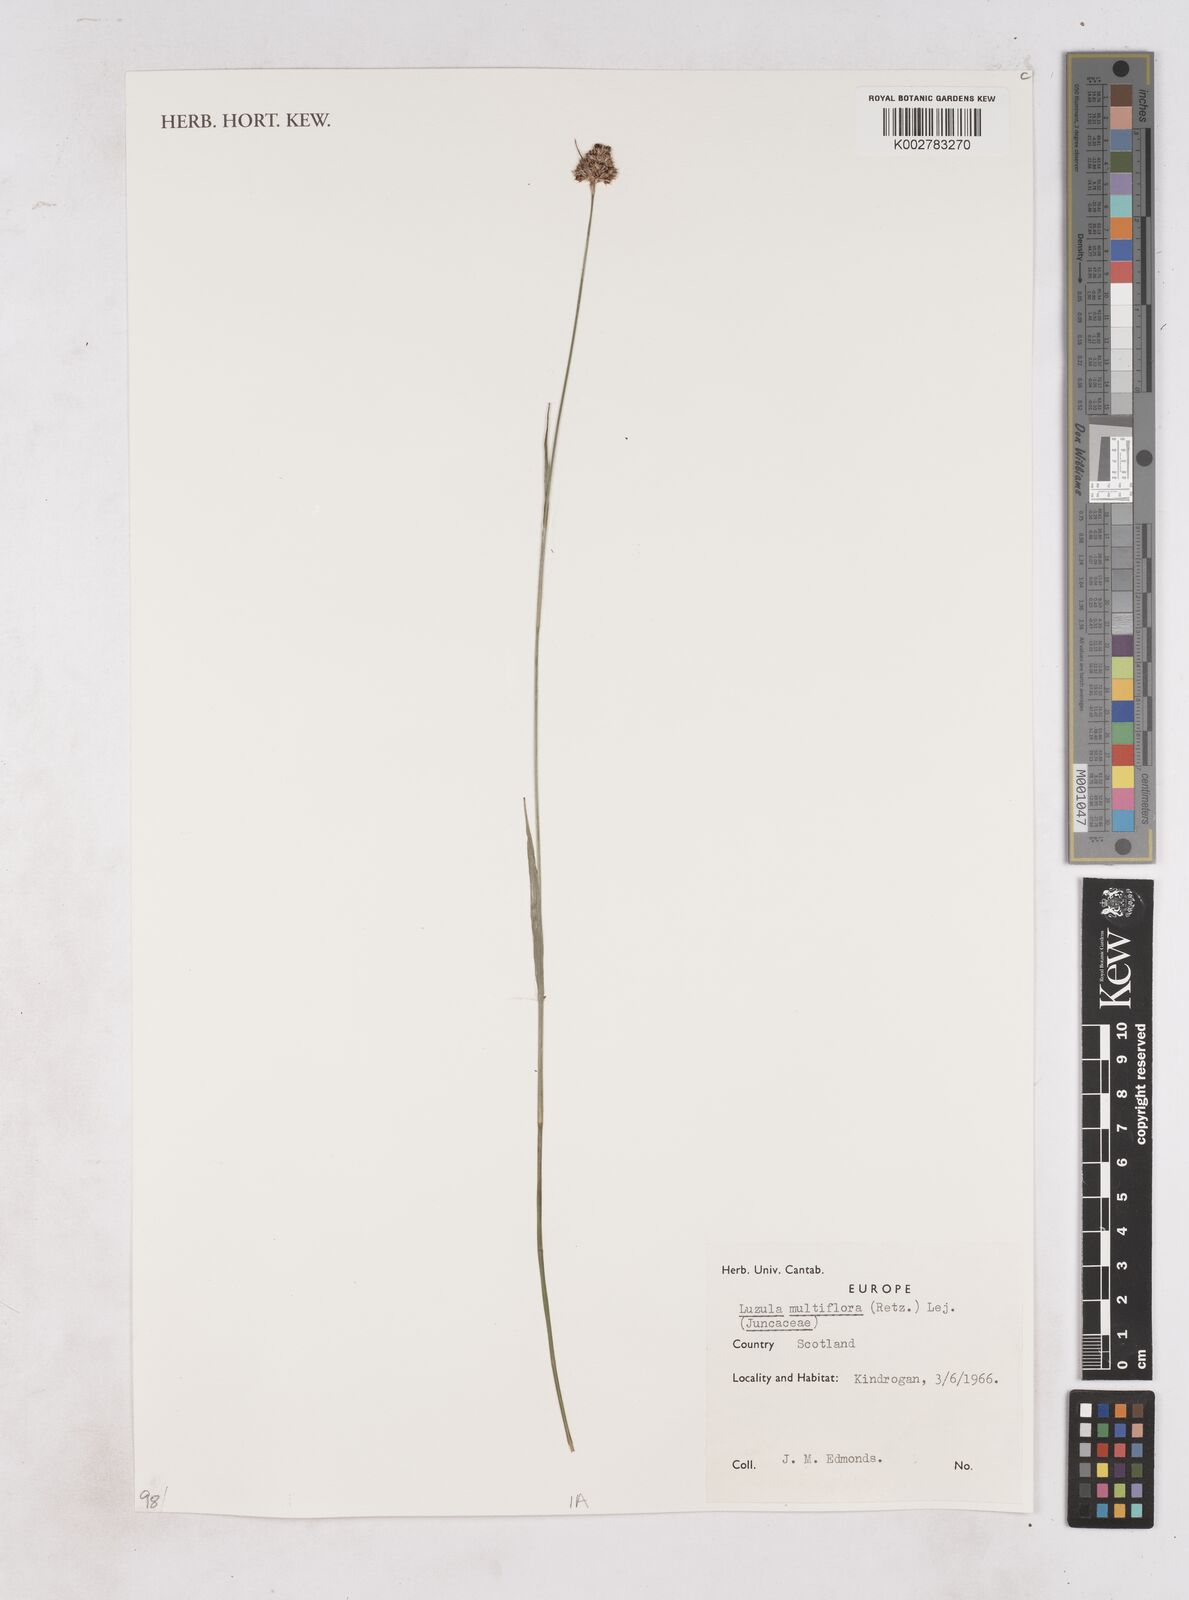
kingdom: Plantae
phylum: Tracheophyta
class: Liliopsida
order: Poales
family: Juncaceae
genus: Luzula
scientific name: Luzula multiflora
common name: Heath wood-rush
